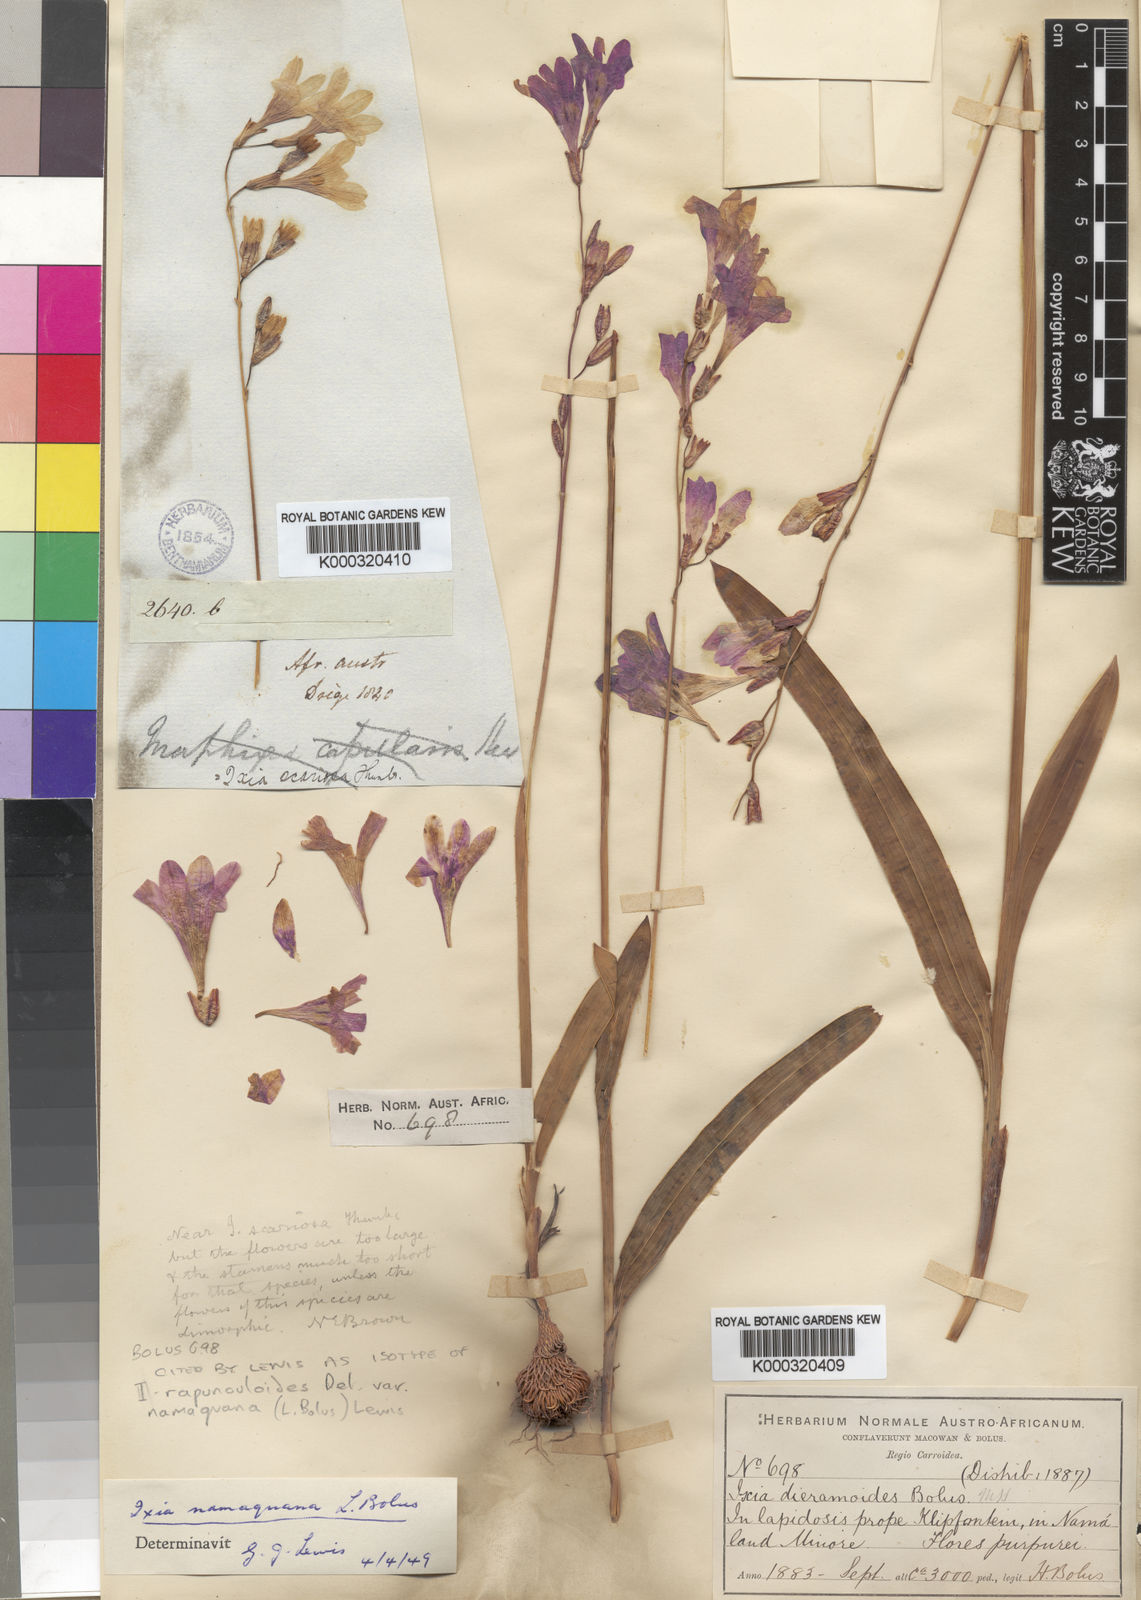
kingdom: Plantae
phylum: Tracheophyta
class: Liliopsida
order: Asparagales
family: Iridaceae
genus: Ixia
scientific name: Ixia
